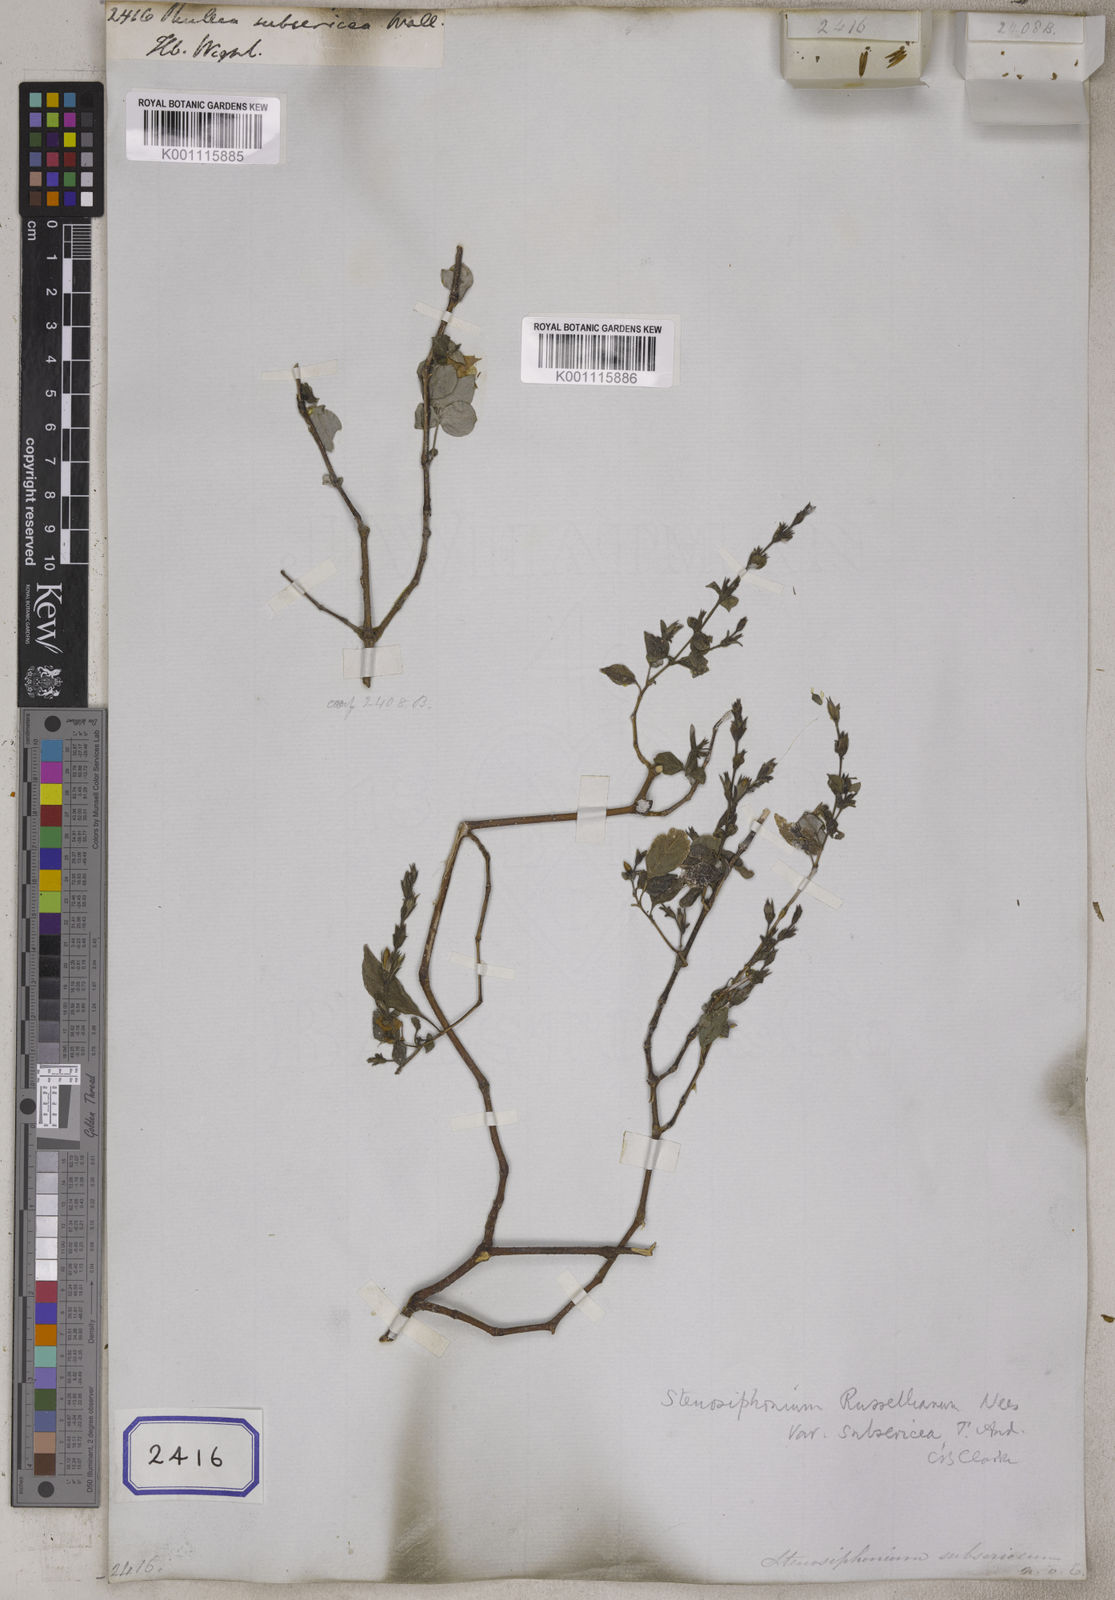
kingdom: Plantae
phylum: Tracheophyta
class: Magnoliopsida
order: Lamiales
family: Acanthaceae
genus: Strobilanthes
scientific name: Strobilanthes cordifolia
